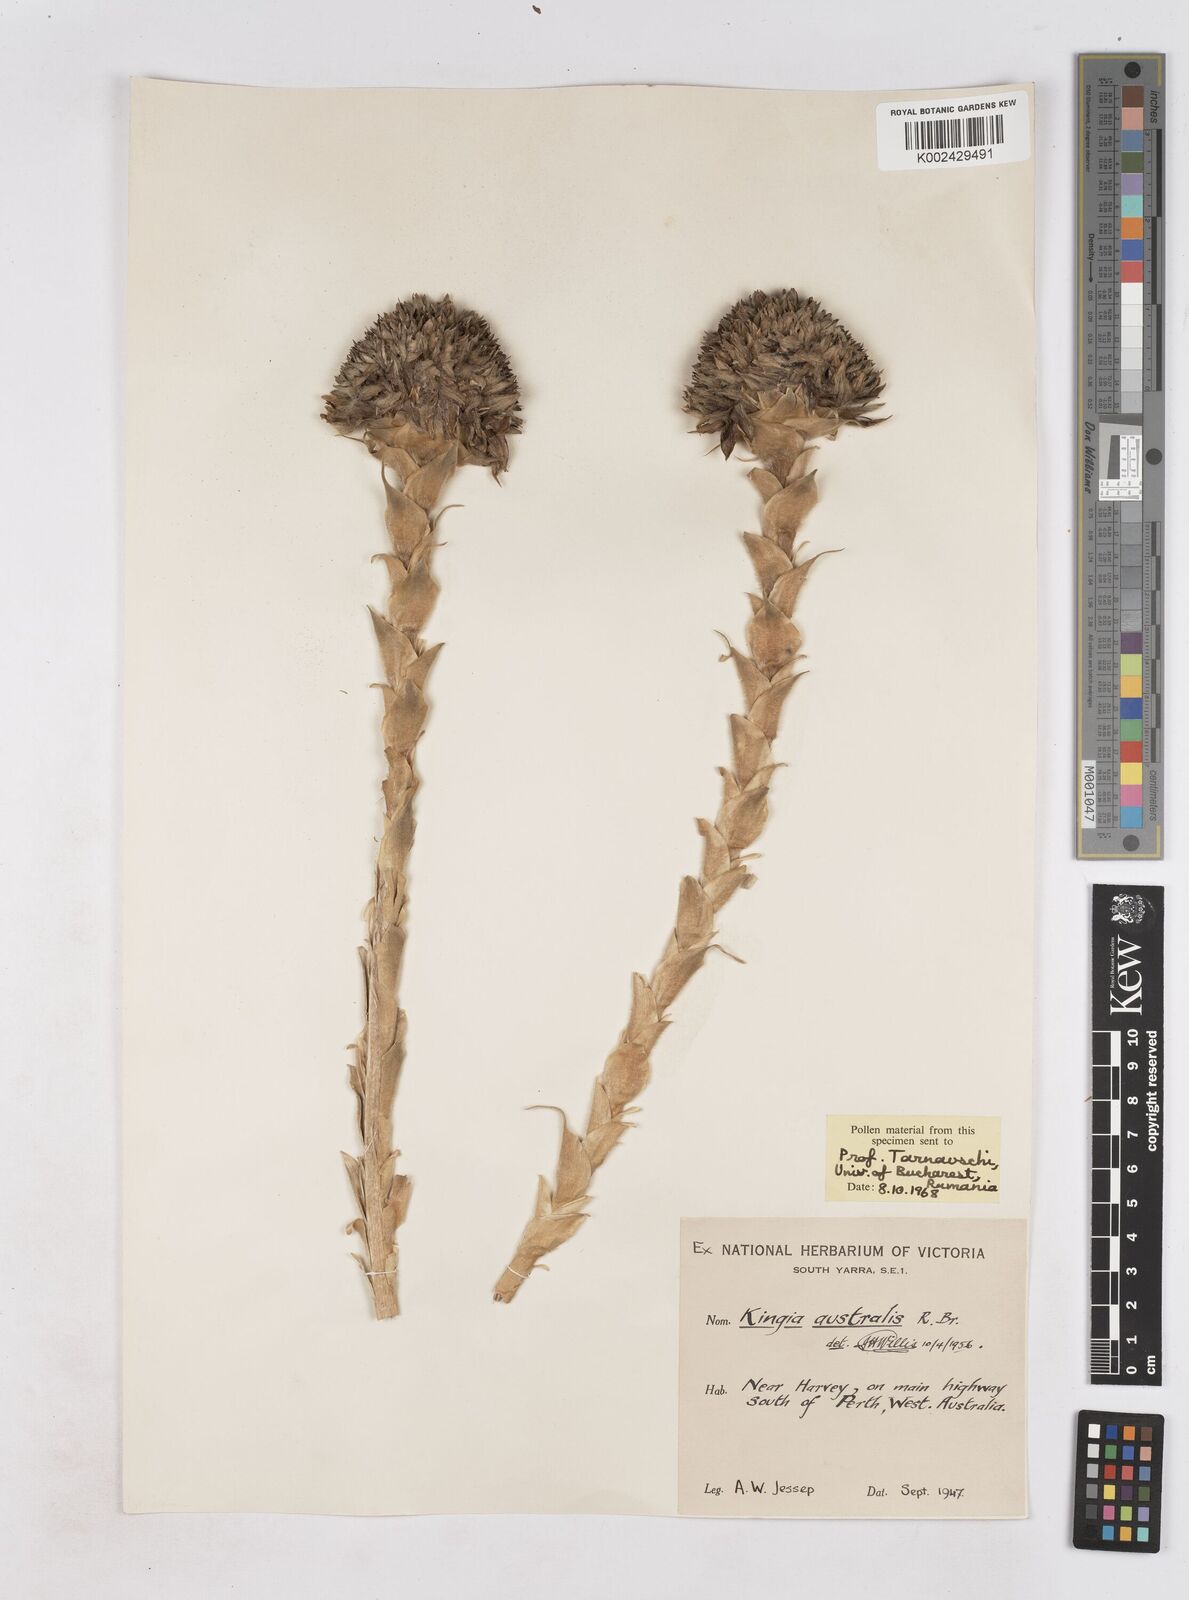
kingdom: Plantae
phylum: Tracheophyta
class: Liliopsida
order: Arecales
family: Dasypogonaceae
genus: Kingia
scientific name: Kingia australis
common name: Black gin
